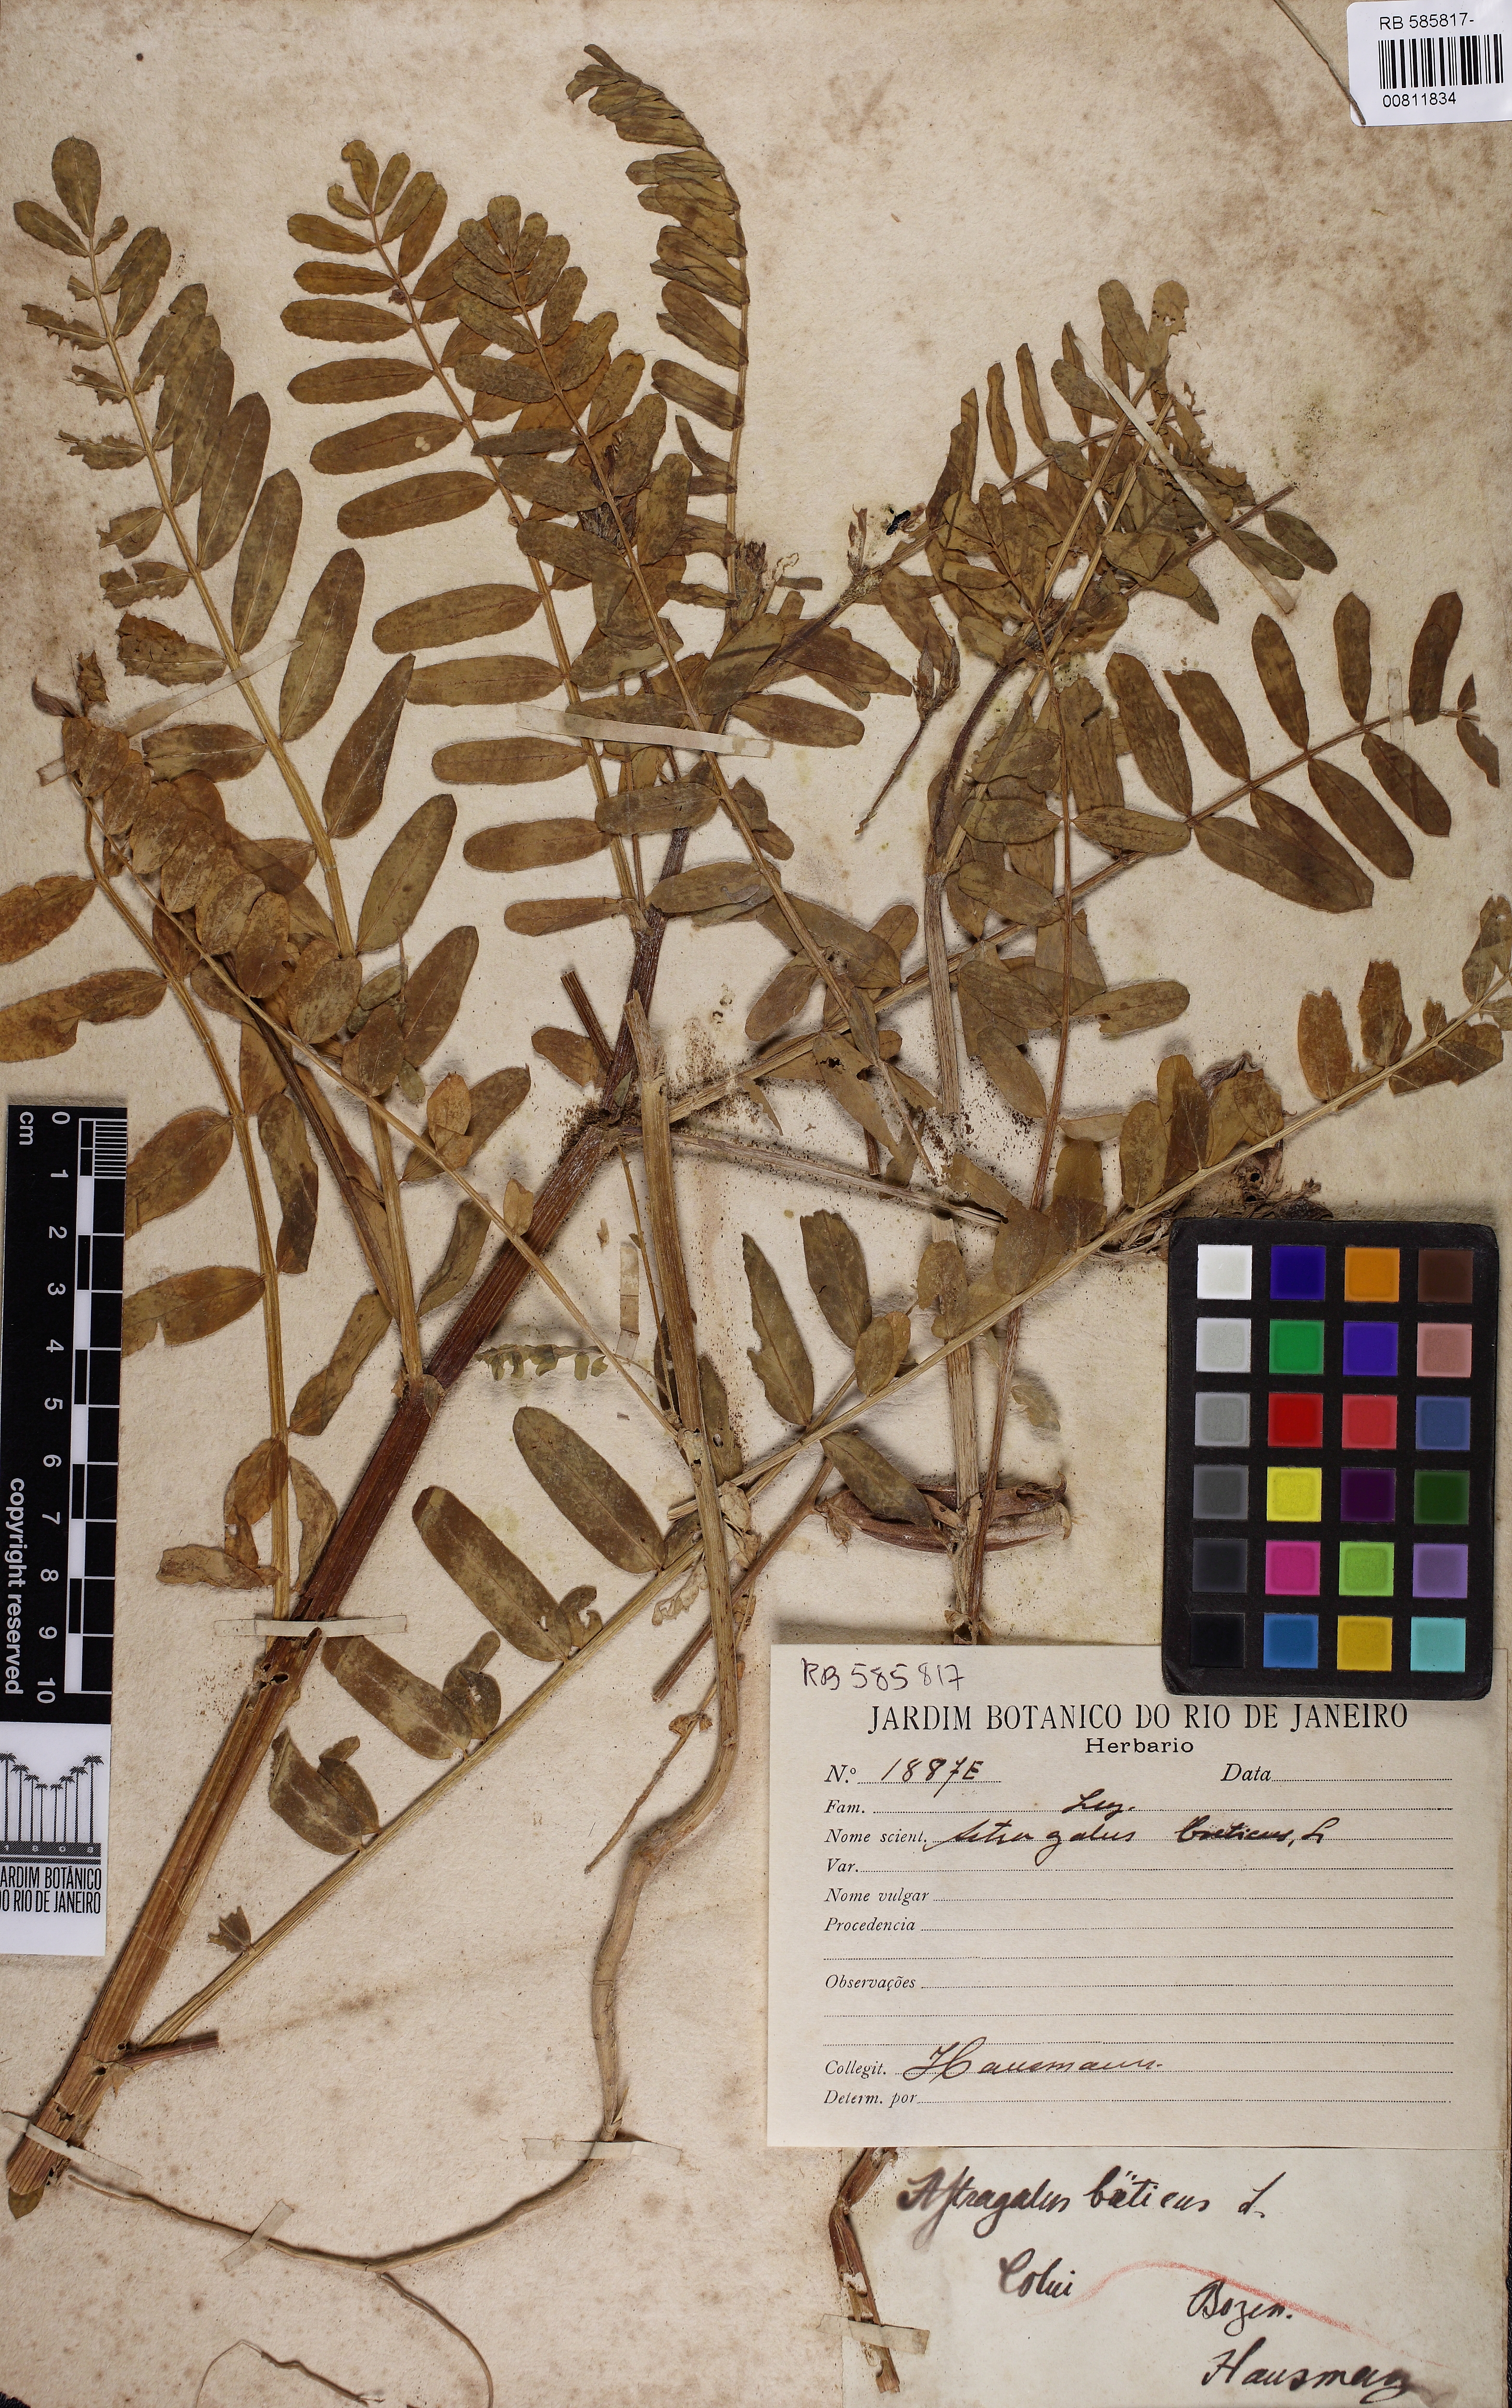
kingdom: Plantae
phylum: Tracheophyta
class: Magnoliopsida
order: Fabales
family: Fabaceae
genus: Astragalus
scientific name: Astragalus boeticus
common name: Milk-vetch
